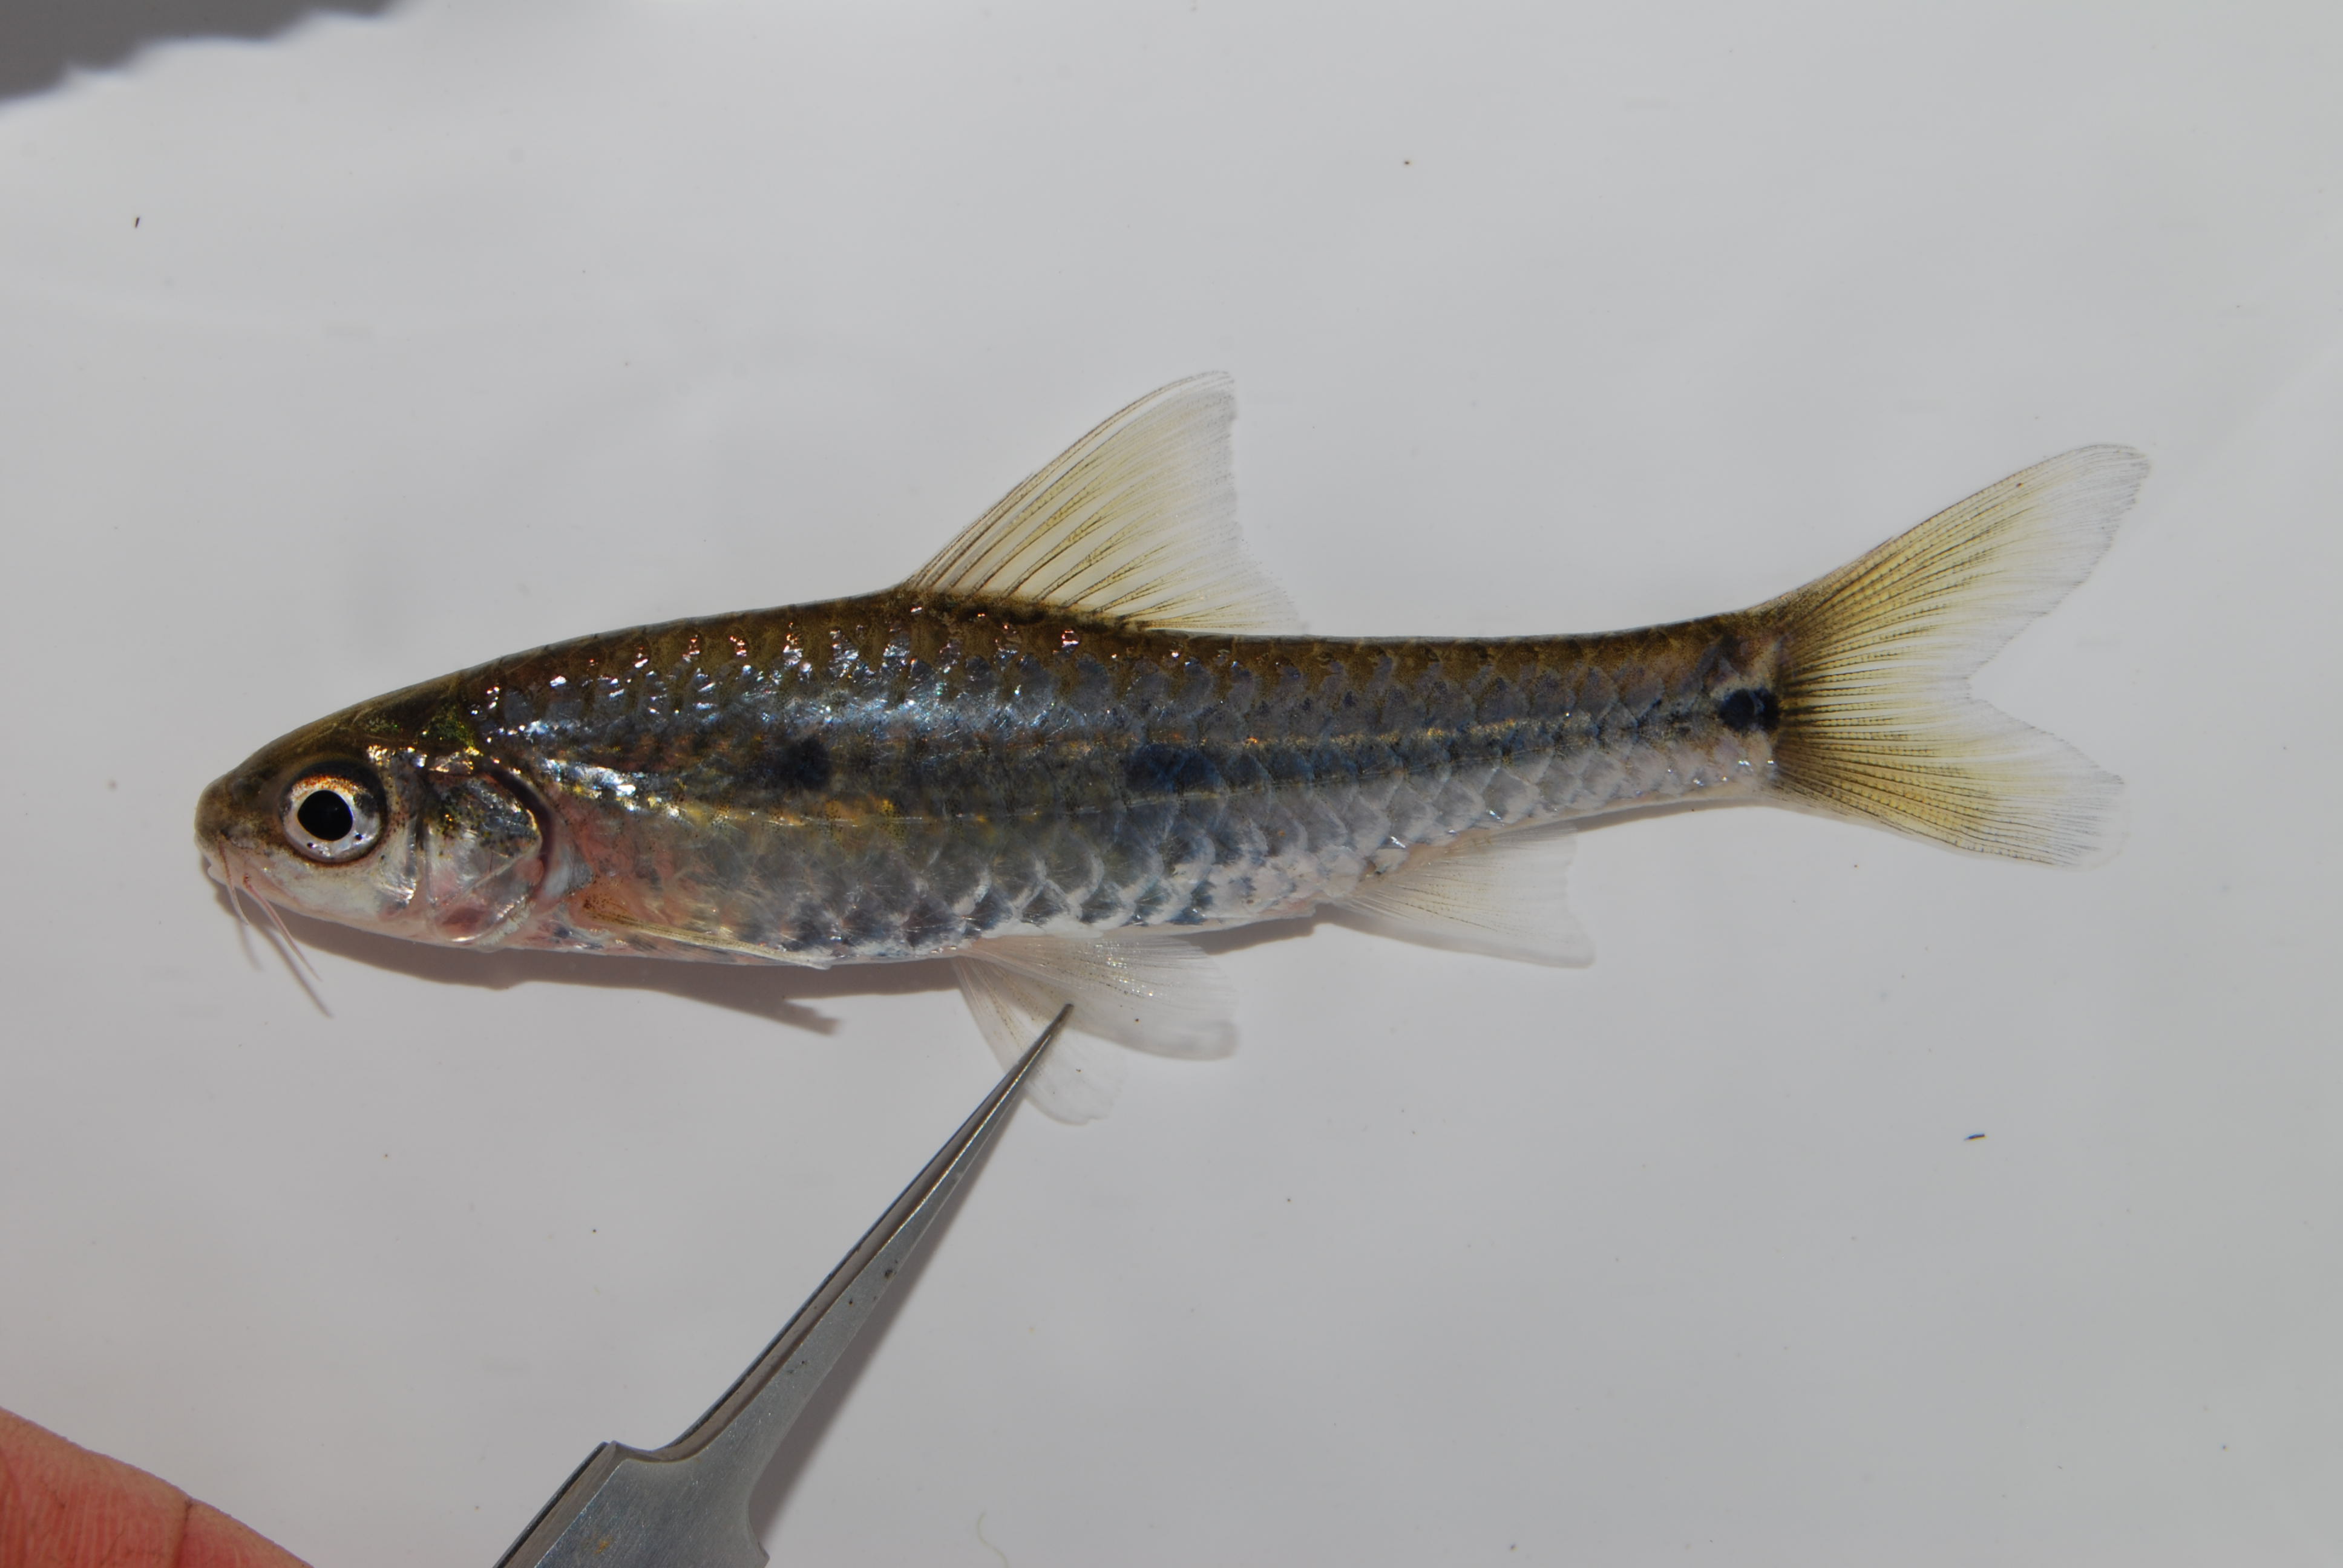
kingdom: Animalia
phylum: Chordata
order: Cypriniformes
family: Cyprinidae
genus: Enteromius
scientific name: Enteromius annectens
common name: Broadstriped barb
